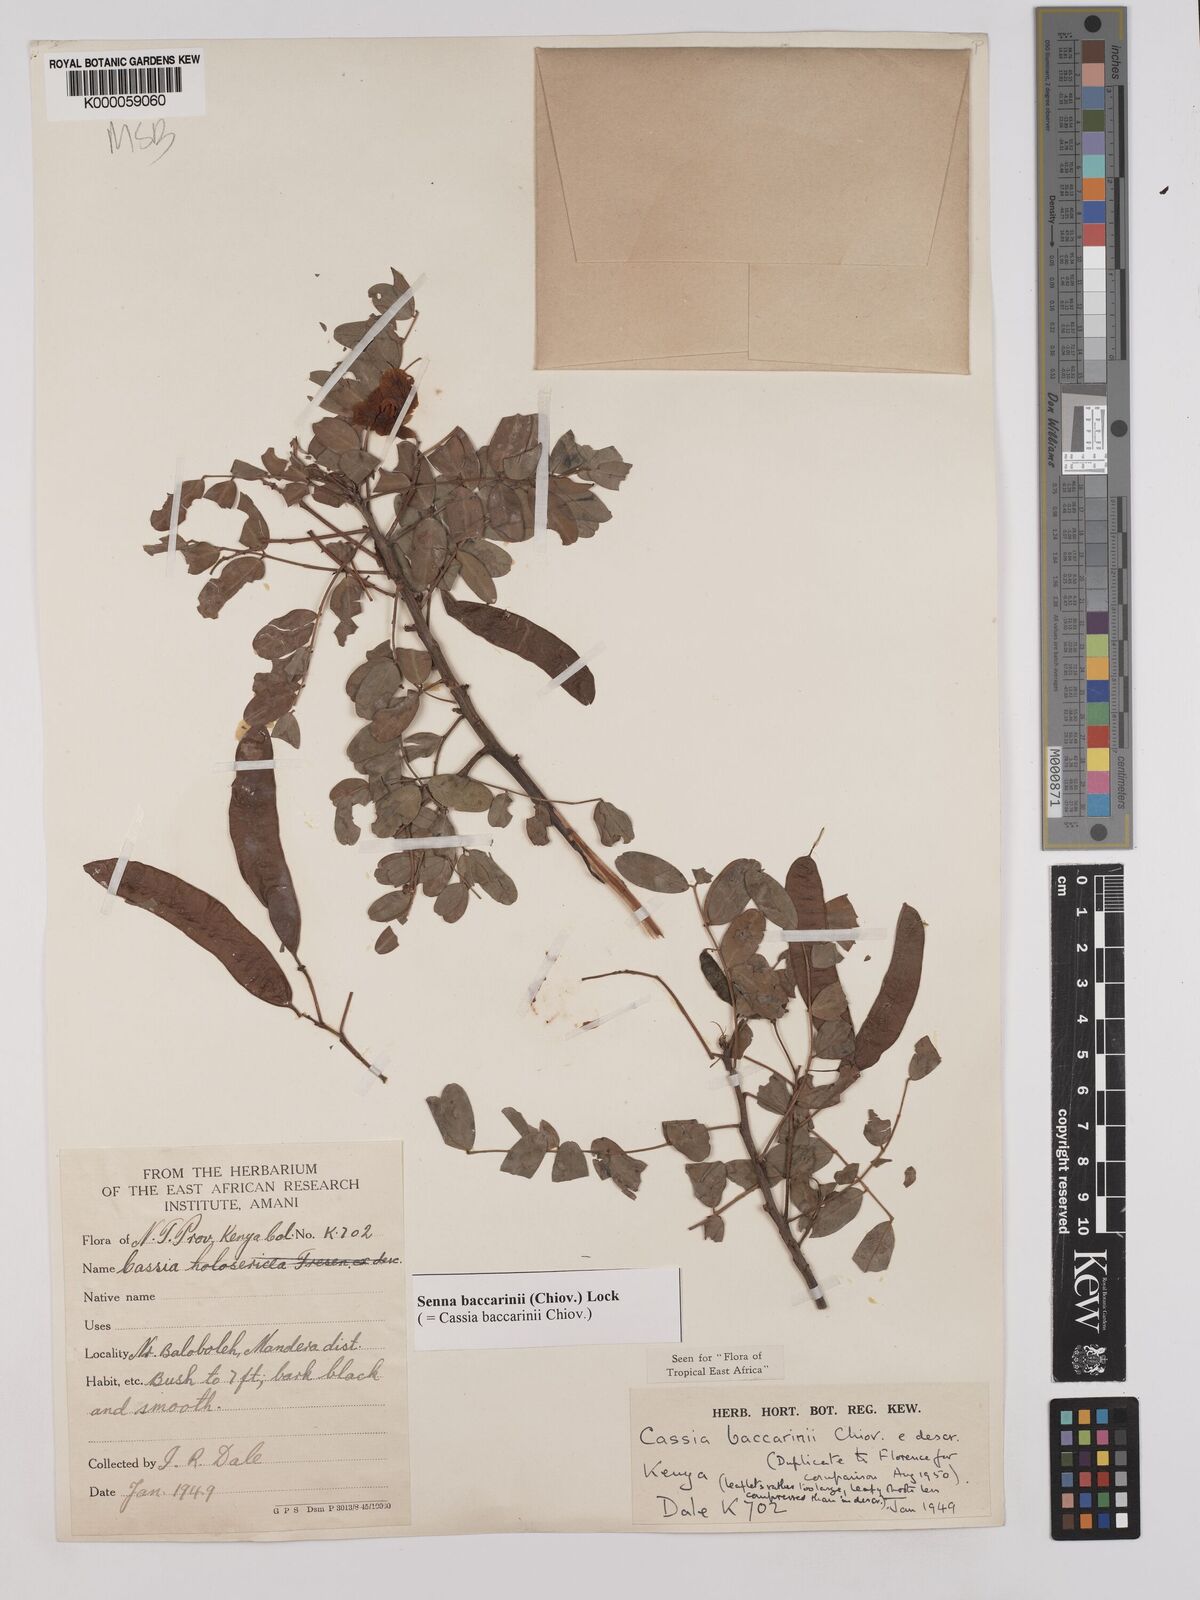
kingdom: Plantae
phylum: Tracheophyta
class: Magnoliopsida
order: Fabales
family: Fabaceae
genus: Senna
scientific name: Senna baccarinii
